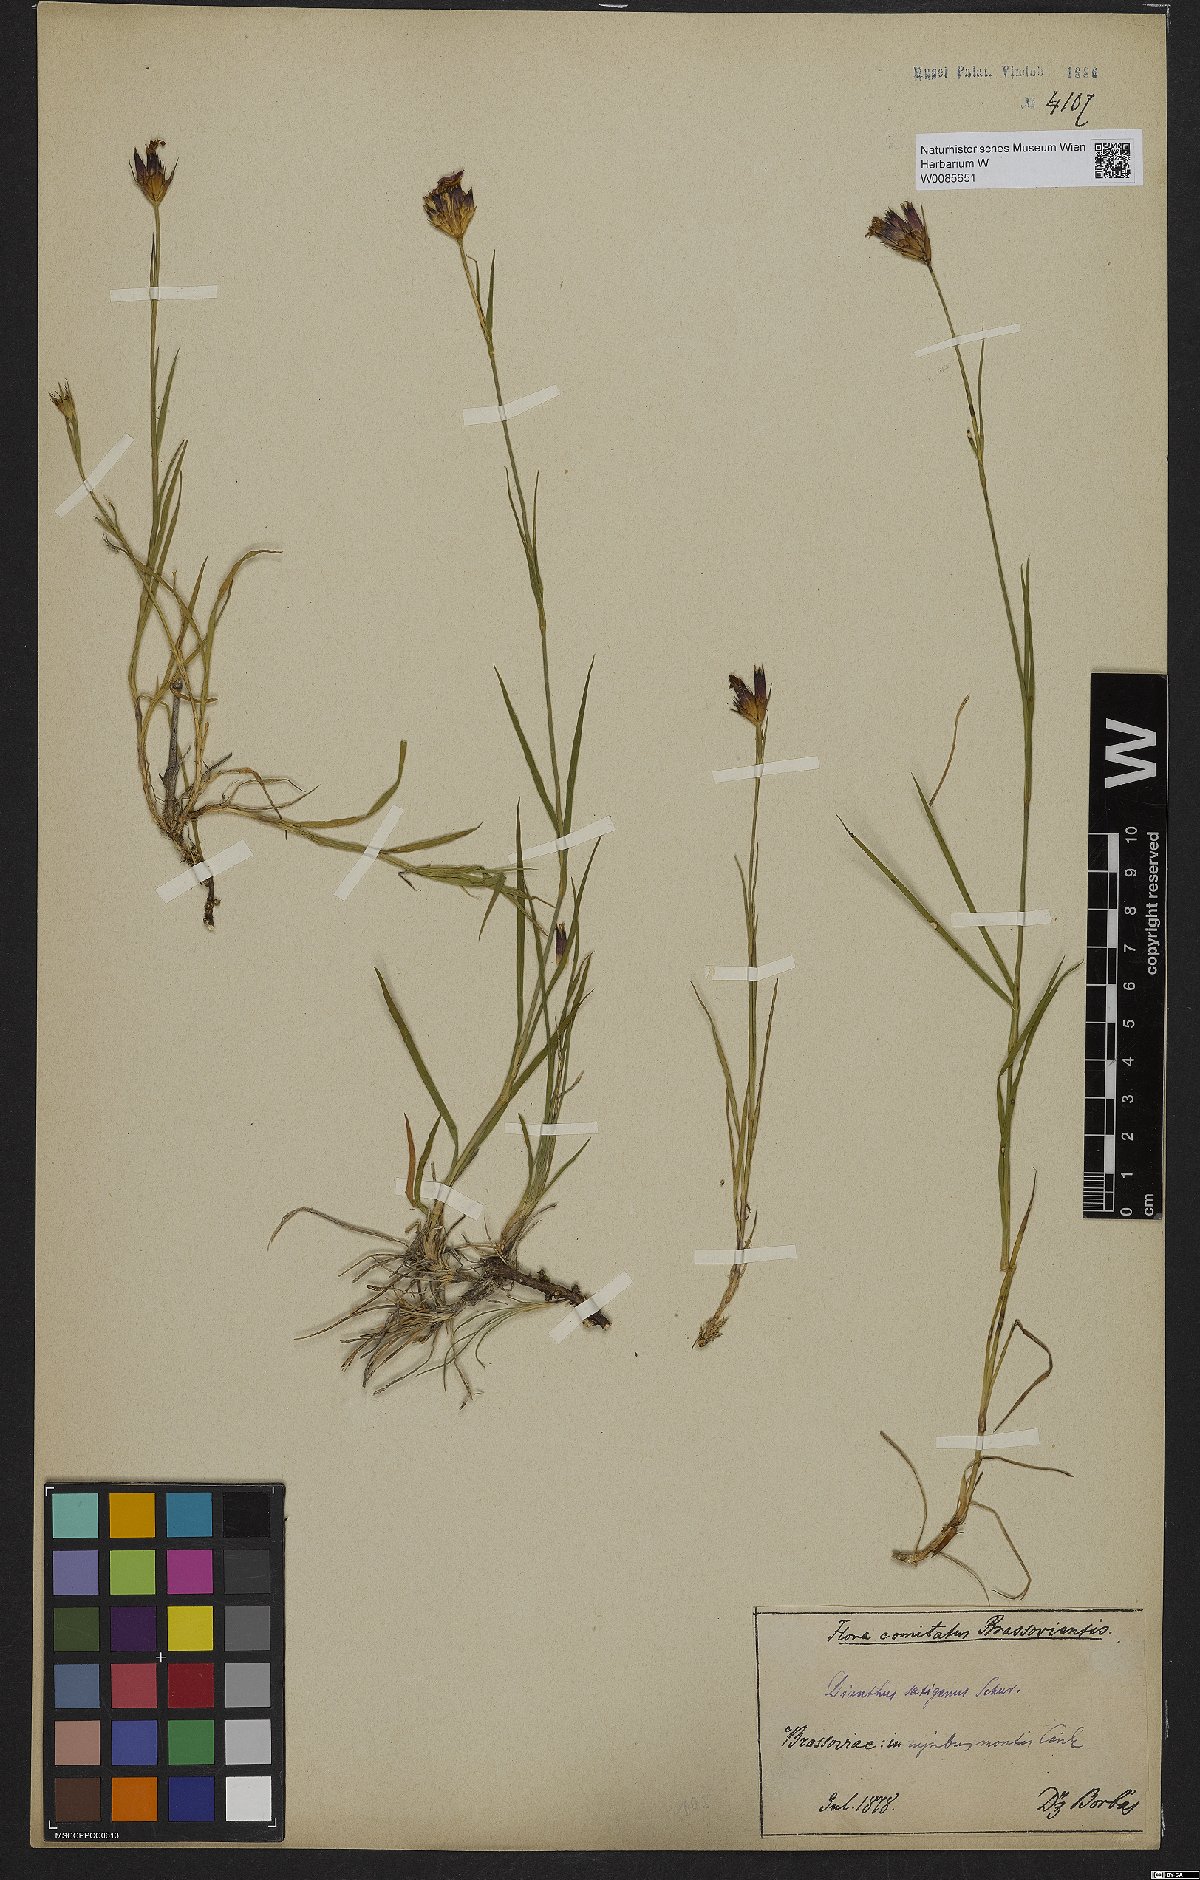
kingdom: Plantae
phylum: Tracheophyta
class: Magnoliopsida
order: Caryophyllales
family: Caryophyllaceae
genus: Dianthus
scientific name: Dianthus
